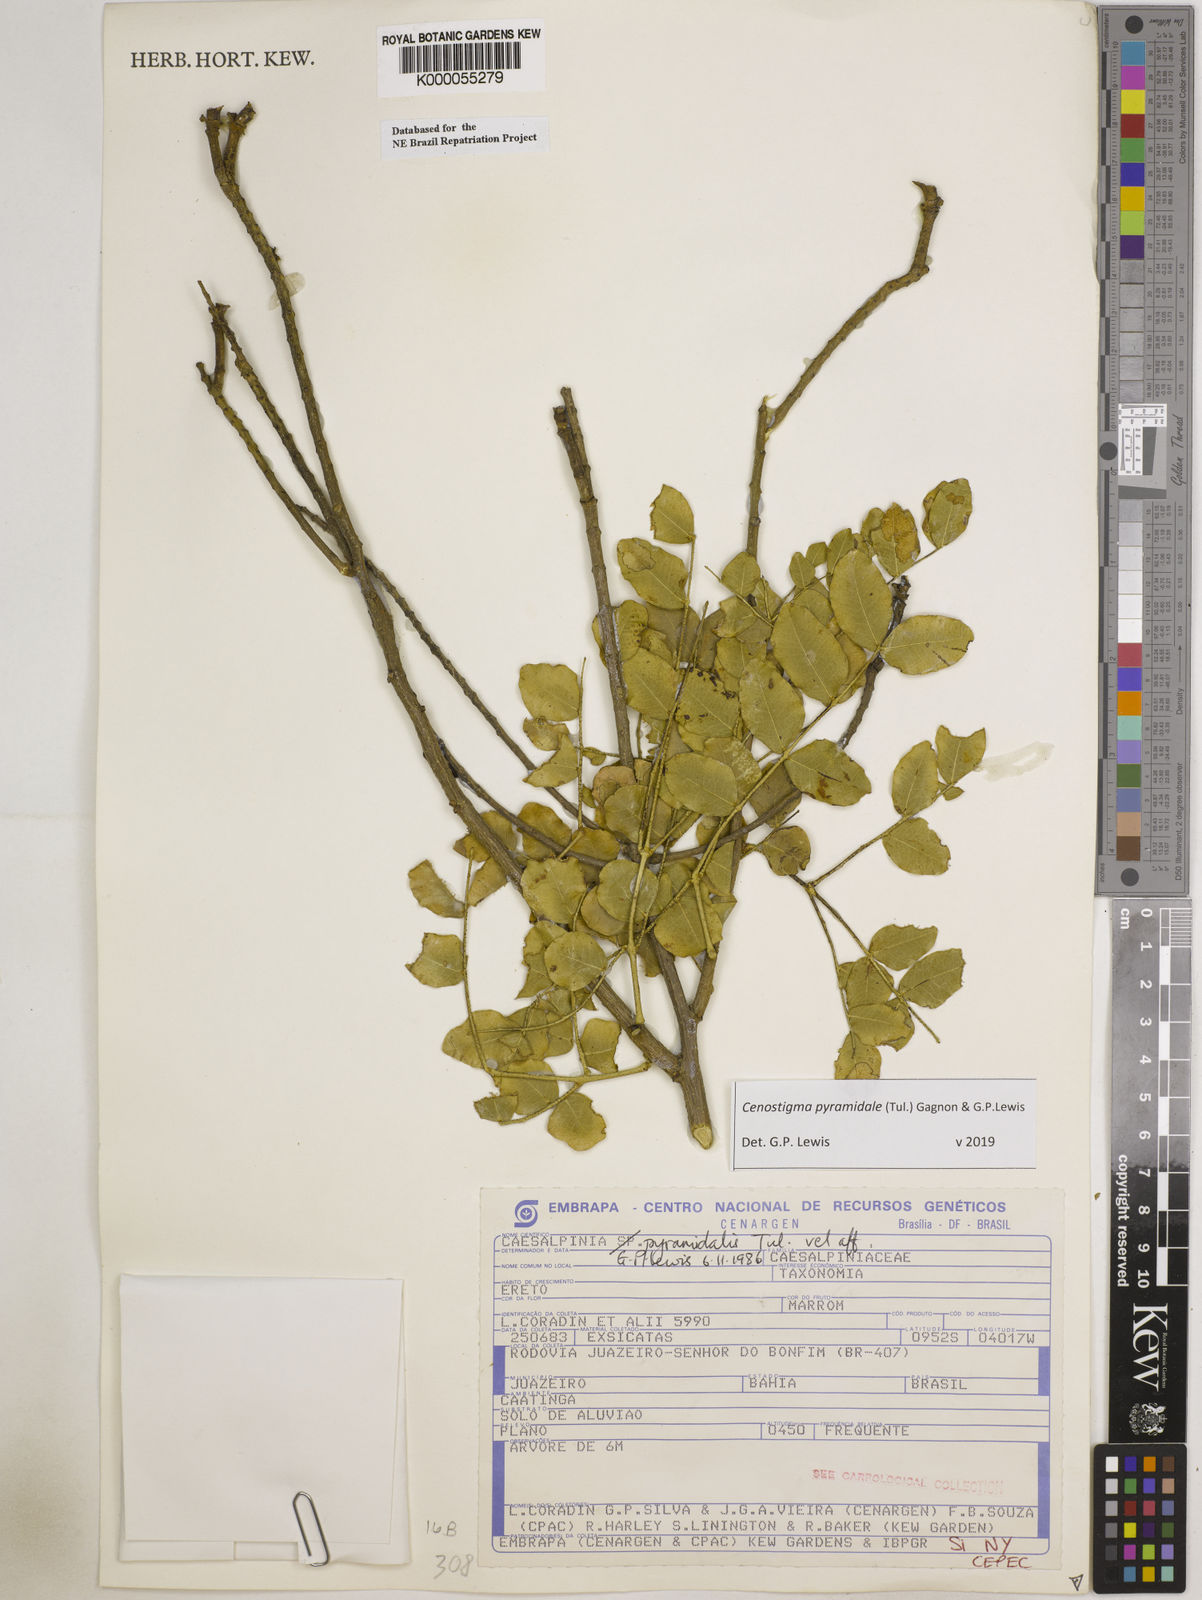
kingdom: Plantae
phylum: Tracheophyta
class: Magnoliopsida
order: Fabales
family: Fabaceae
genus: Cenostigma
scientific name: Cenostigma pyramidale
